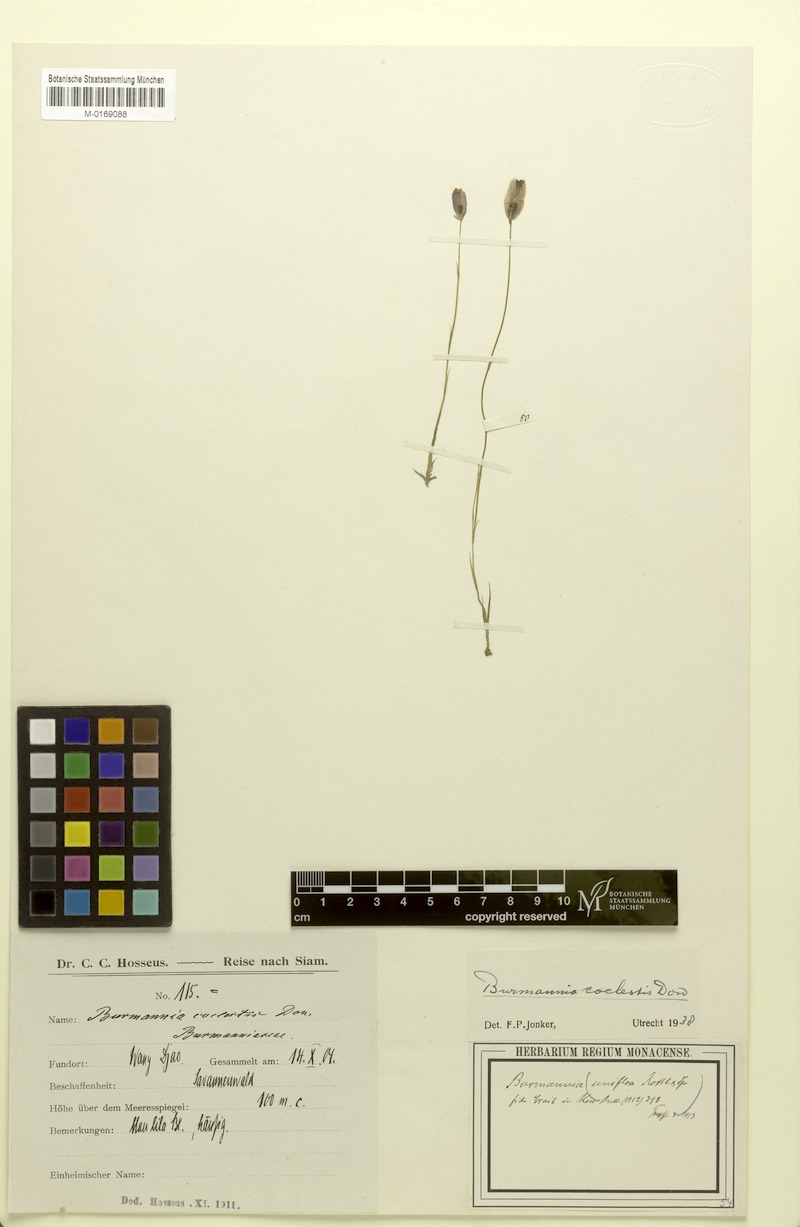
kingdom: Plantae
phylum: Tracheophyta
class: Liliopsida
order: Dioscoreales
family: Burmanniaceae
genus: Burmannia
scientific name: Burmannia coelestis
